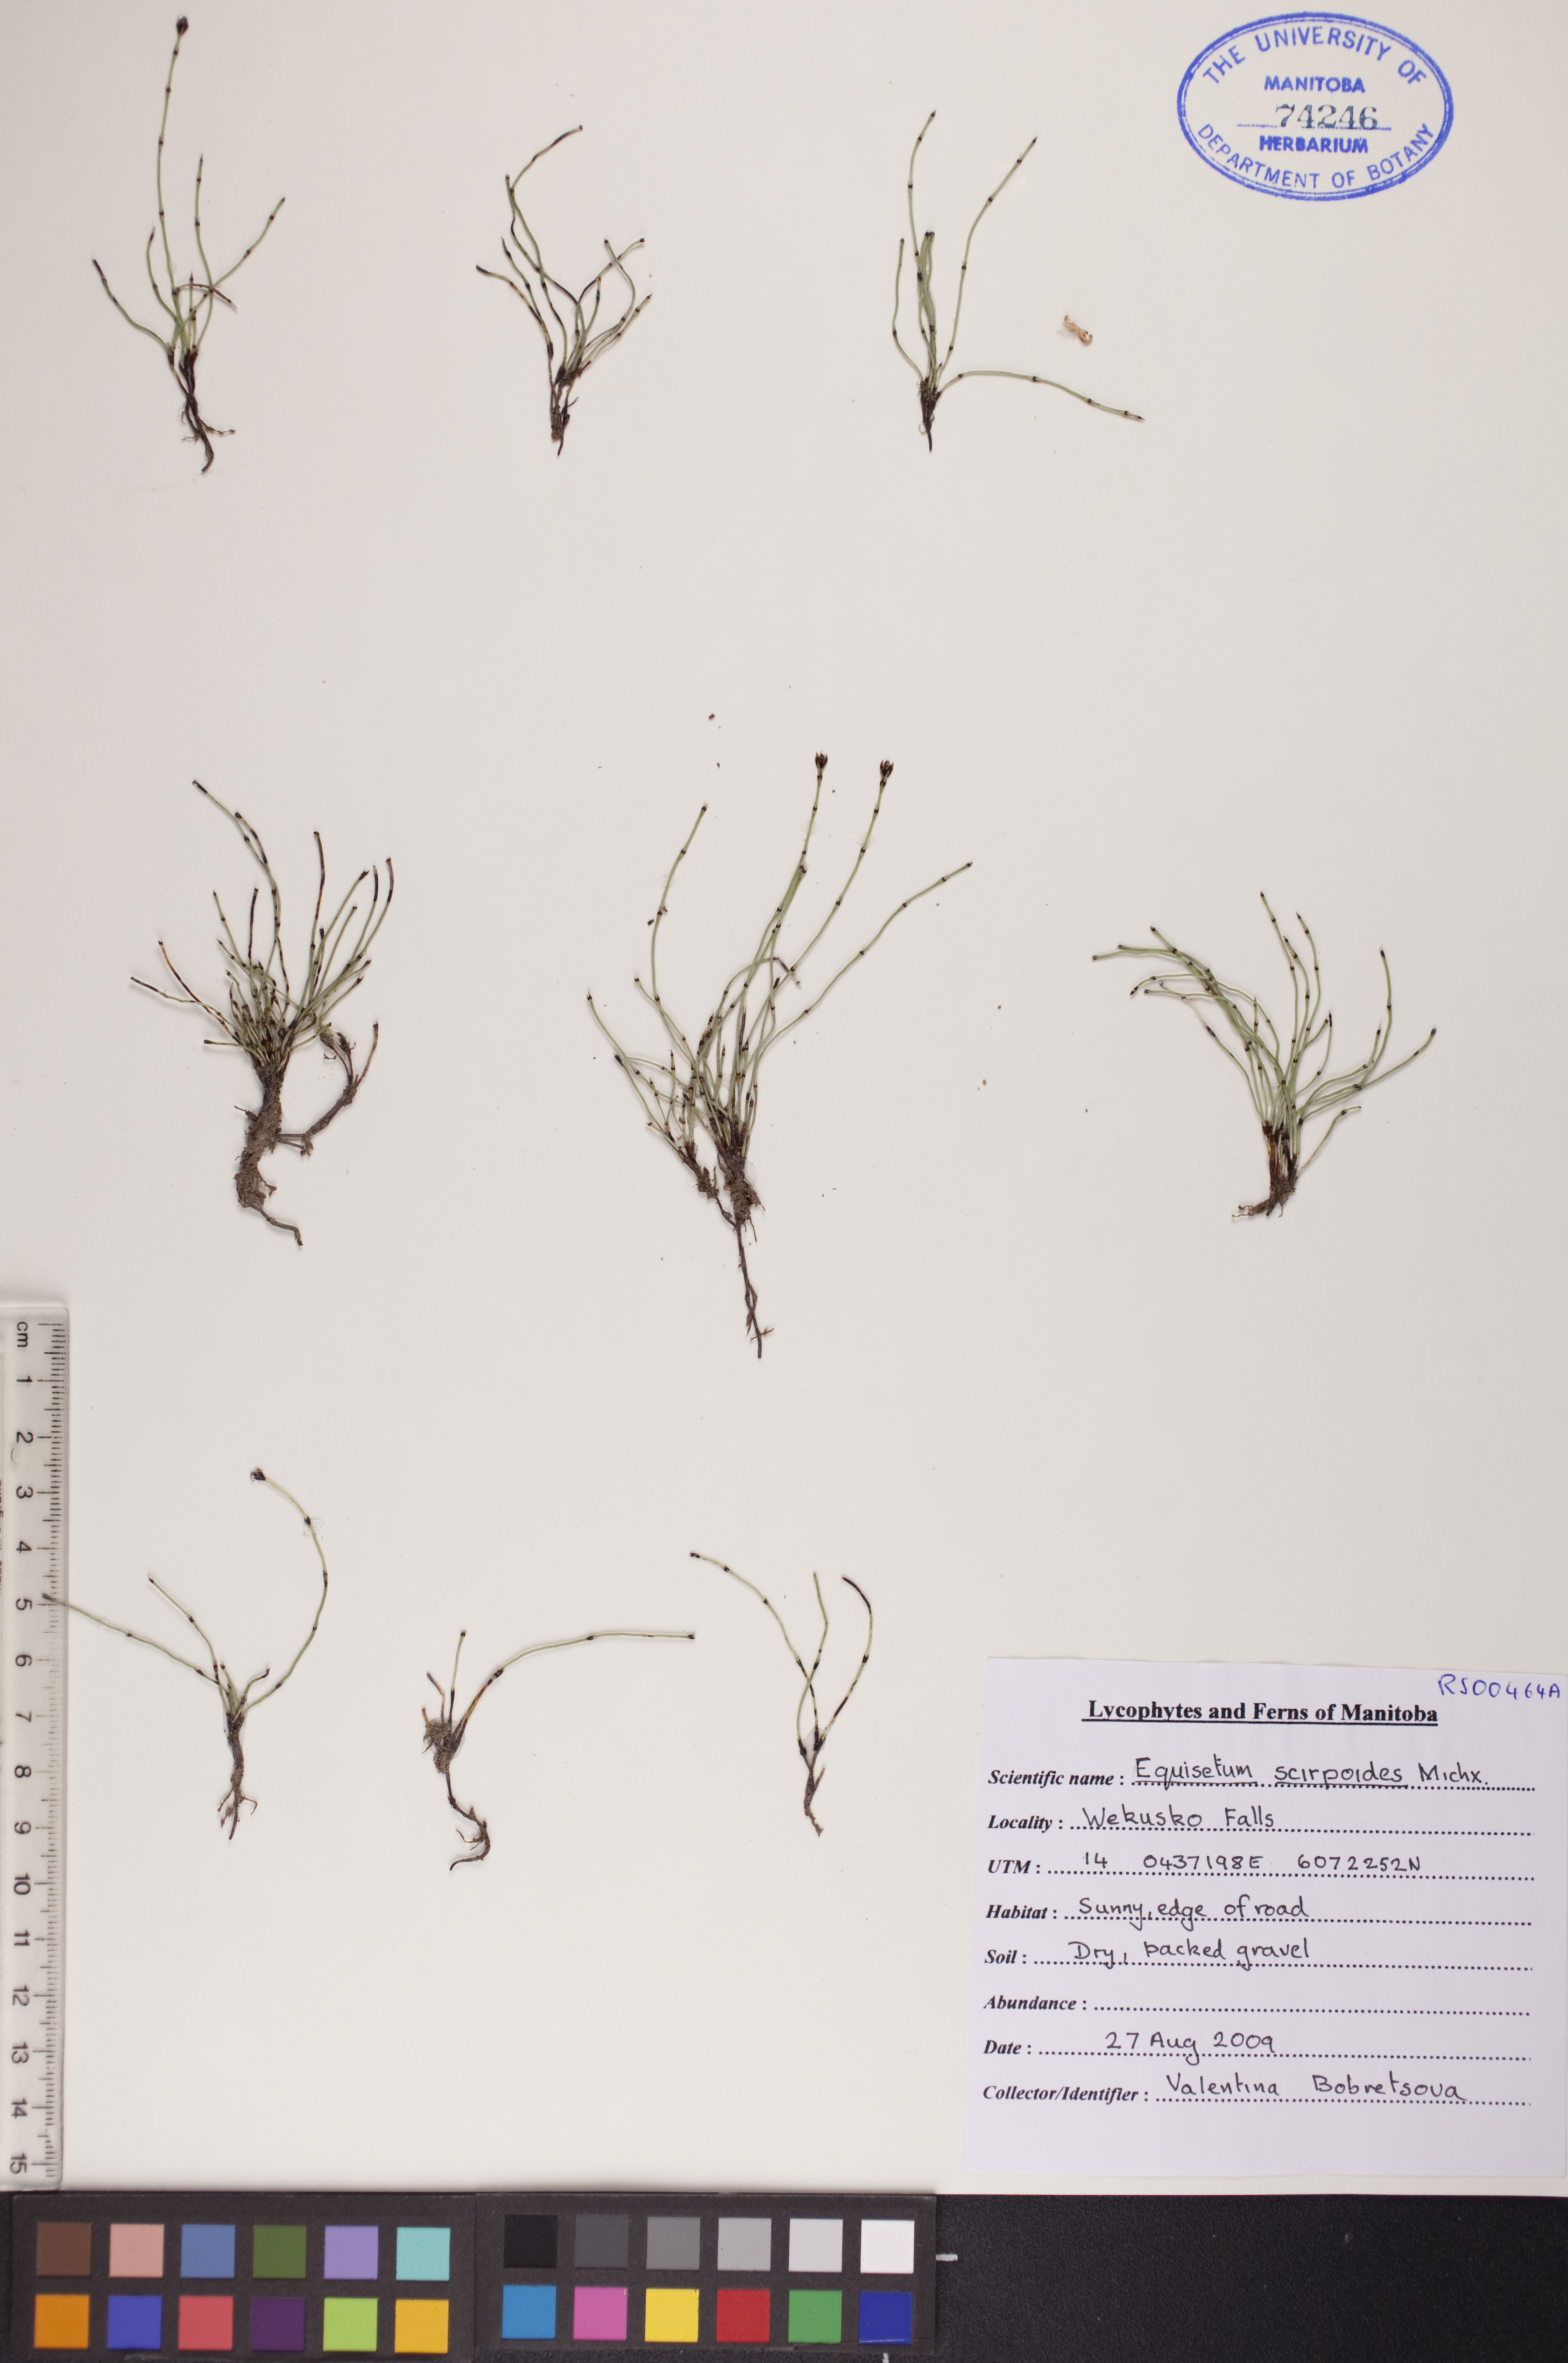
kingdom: Plantae
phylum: Tracheophyta
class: Polypodiopsida
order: Equisetales
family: Equisetaceae
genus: Equisetum
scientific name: Equisetum scirpoides
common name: Delicate horsetail
